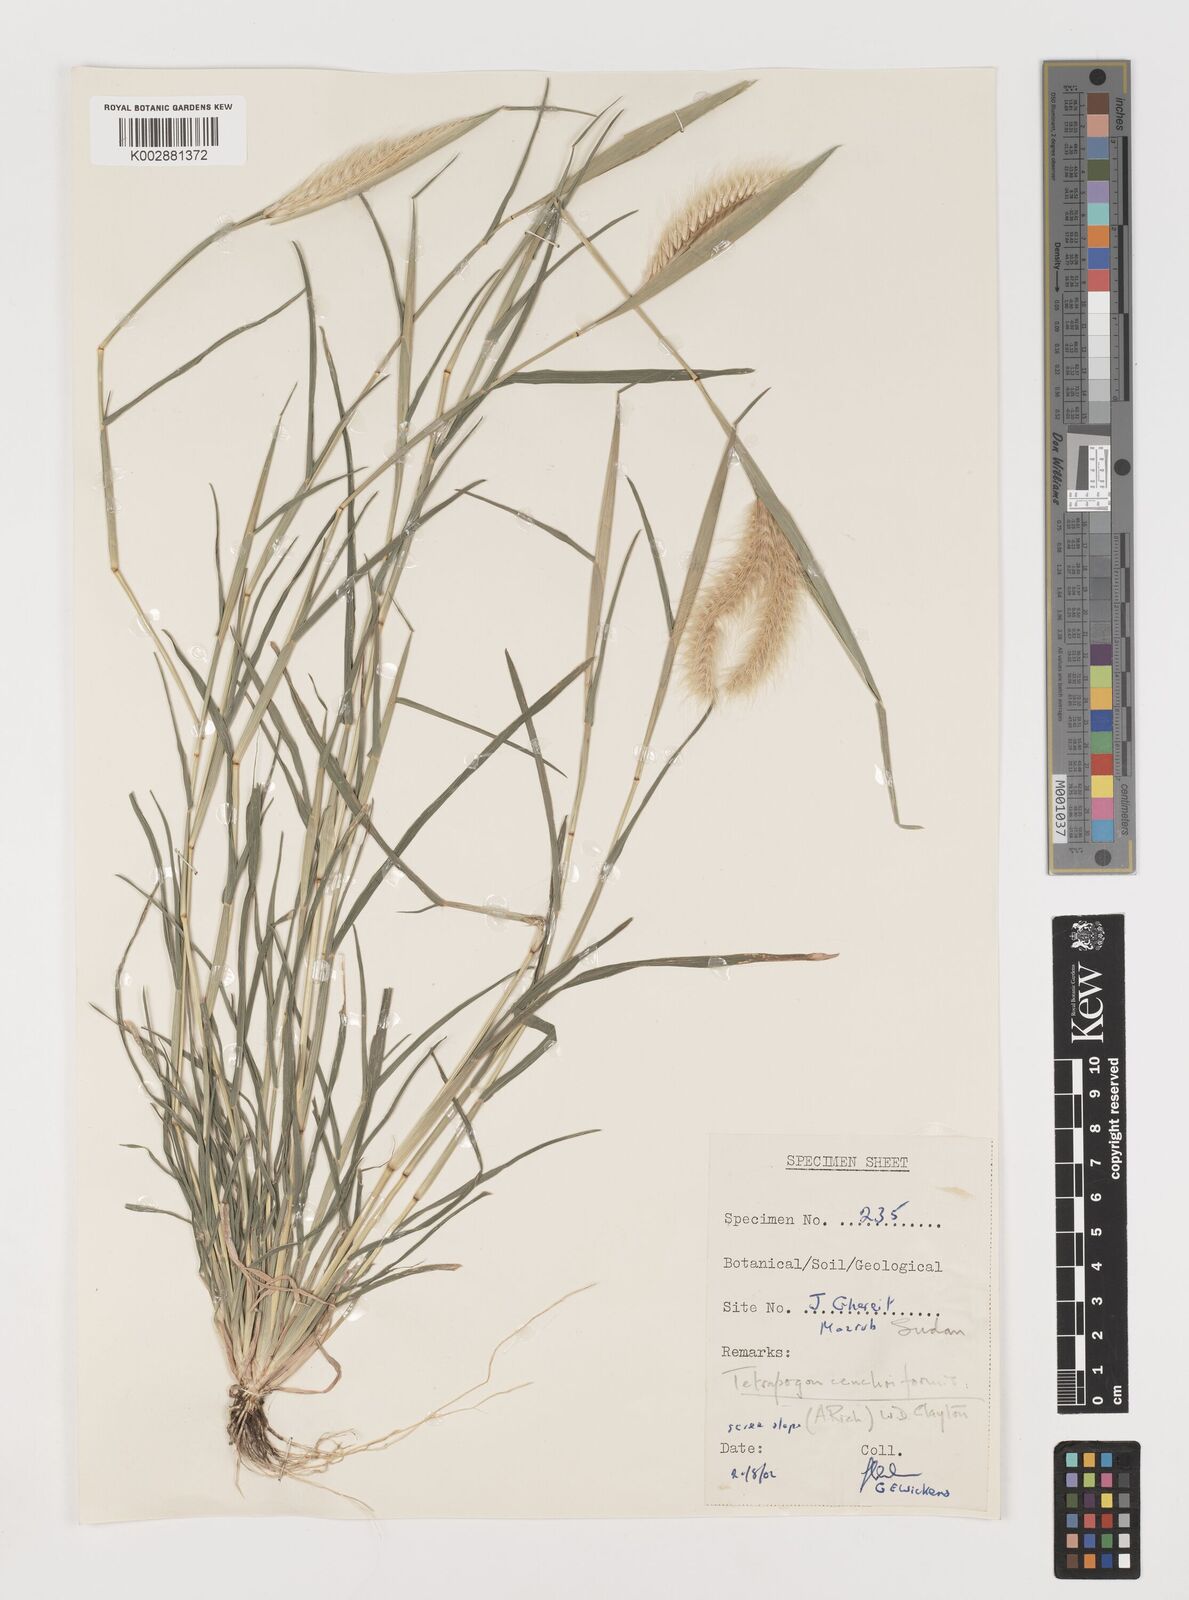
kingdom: Plantae
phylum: Tracheophyta
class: Liliopsida
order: Poales
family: Poaceae
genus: Tetrapogon
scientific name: Tetrapogon cenchriformis
